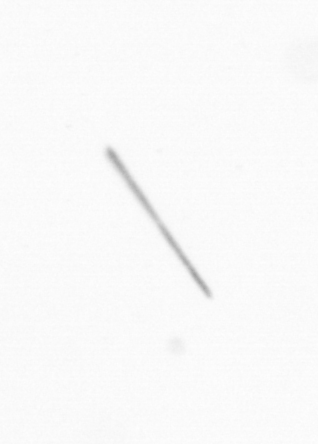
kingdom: Chromista
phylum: Ochrophyta
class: Bacillariophyceae
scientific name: Bacillariophyceae
